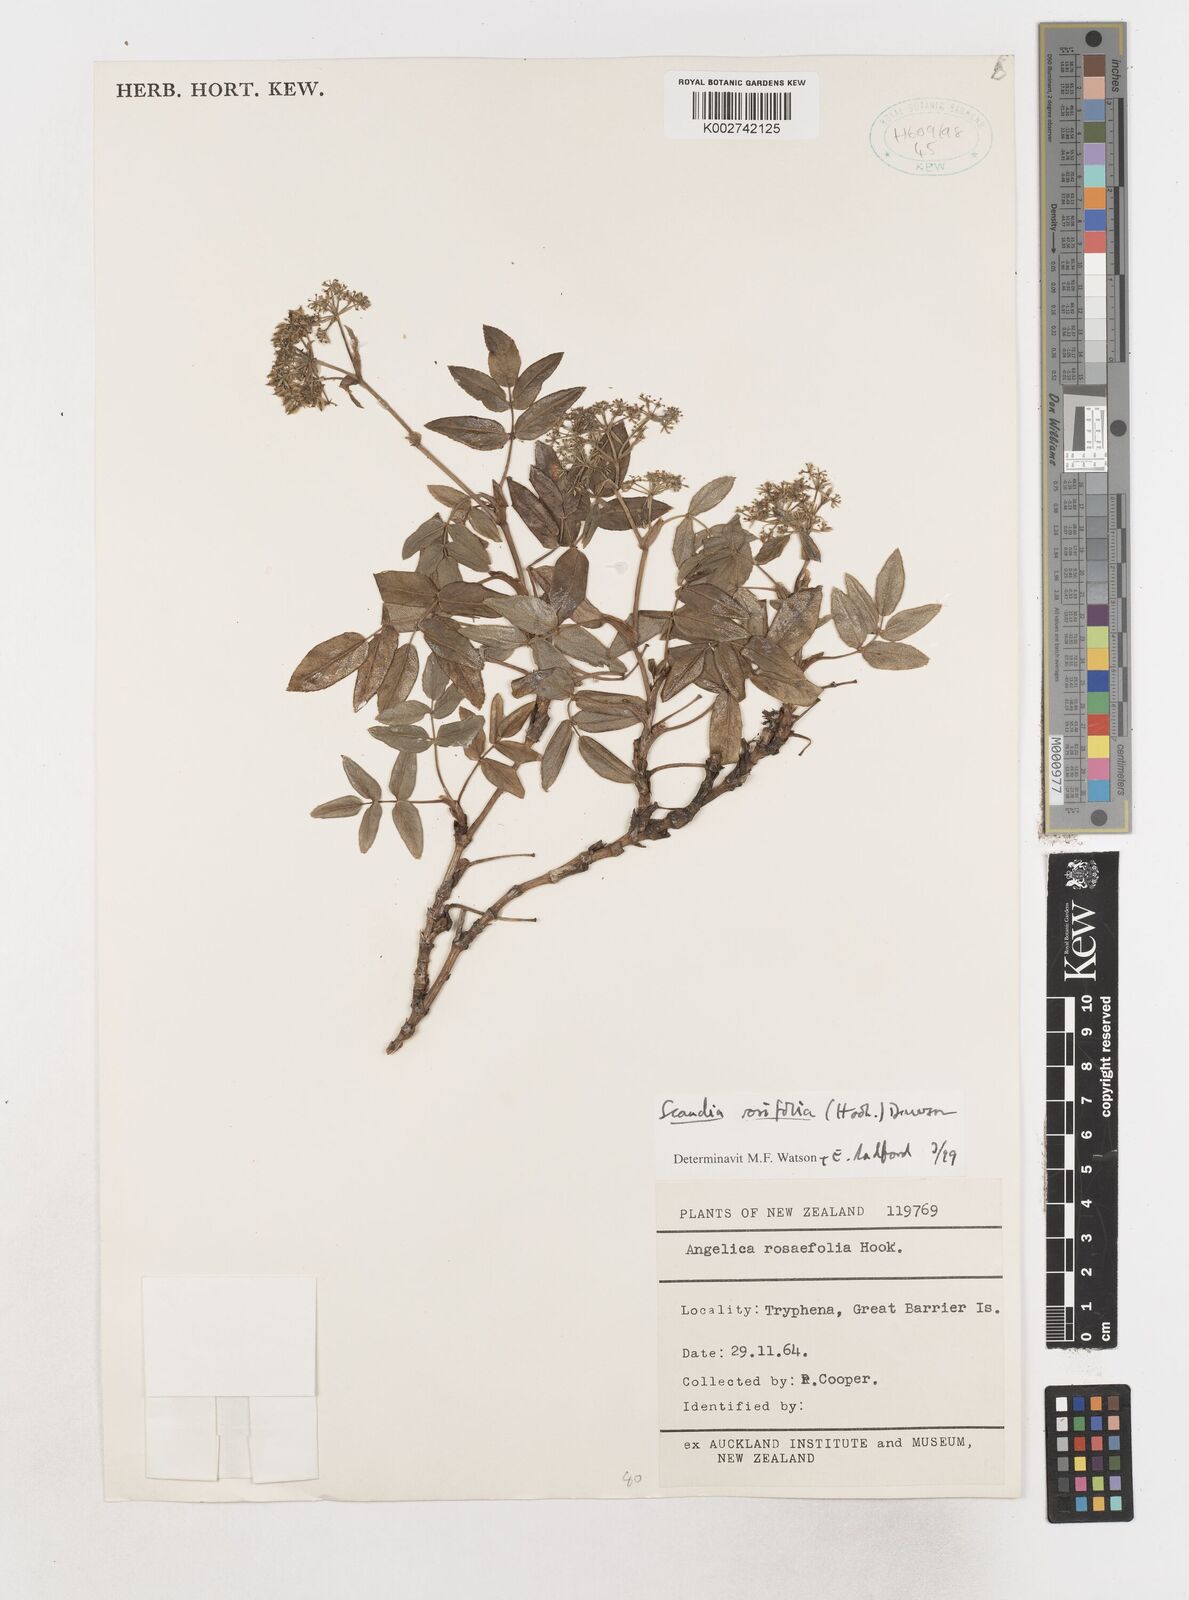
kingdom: Plantae
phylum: Tracheophyta
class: Magnoliopsida
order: Apiales
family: Apiaceae
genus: Scandia
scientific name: Scandia rosifolia
